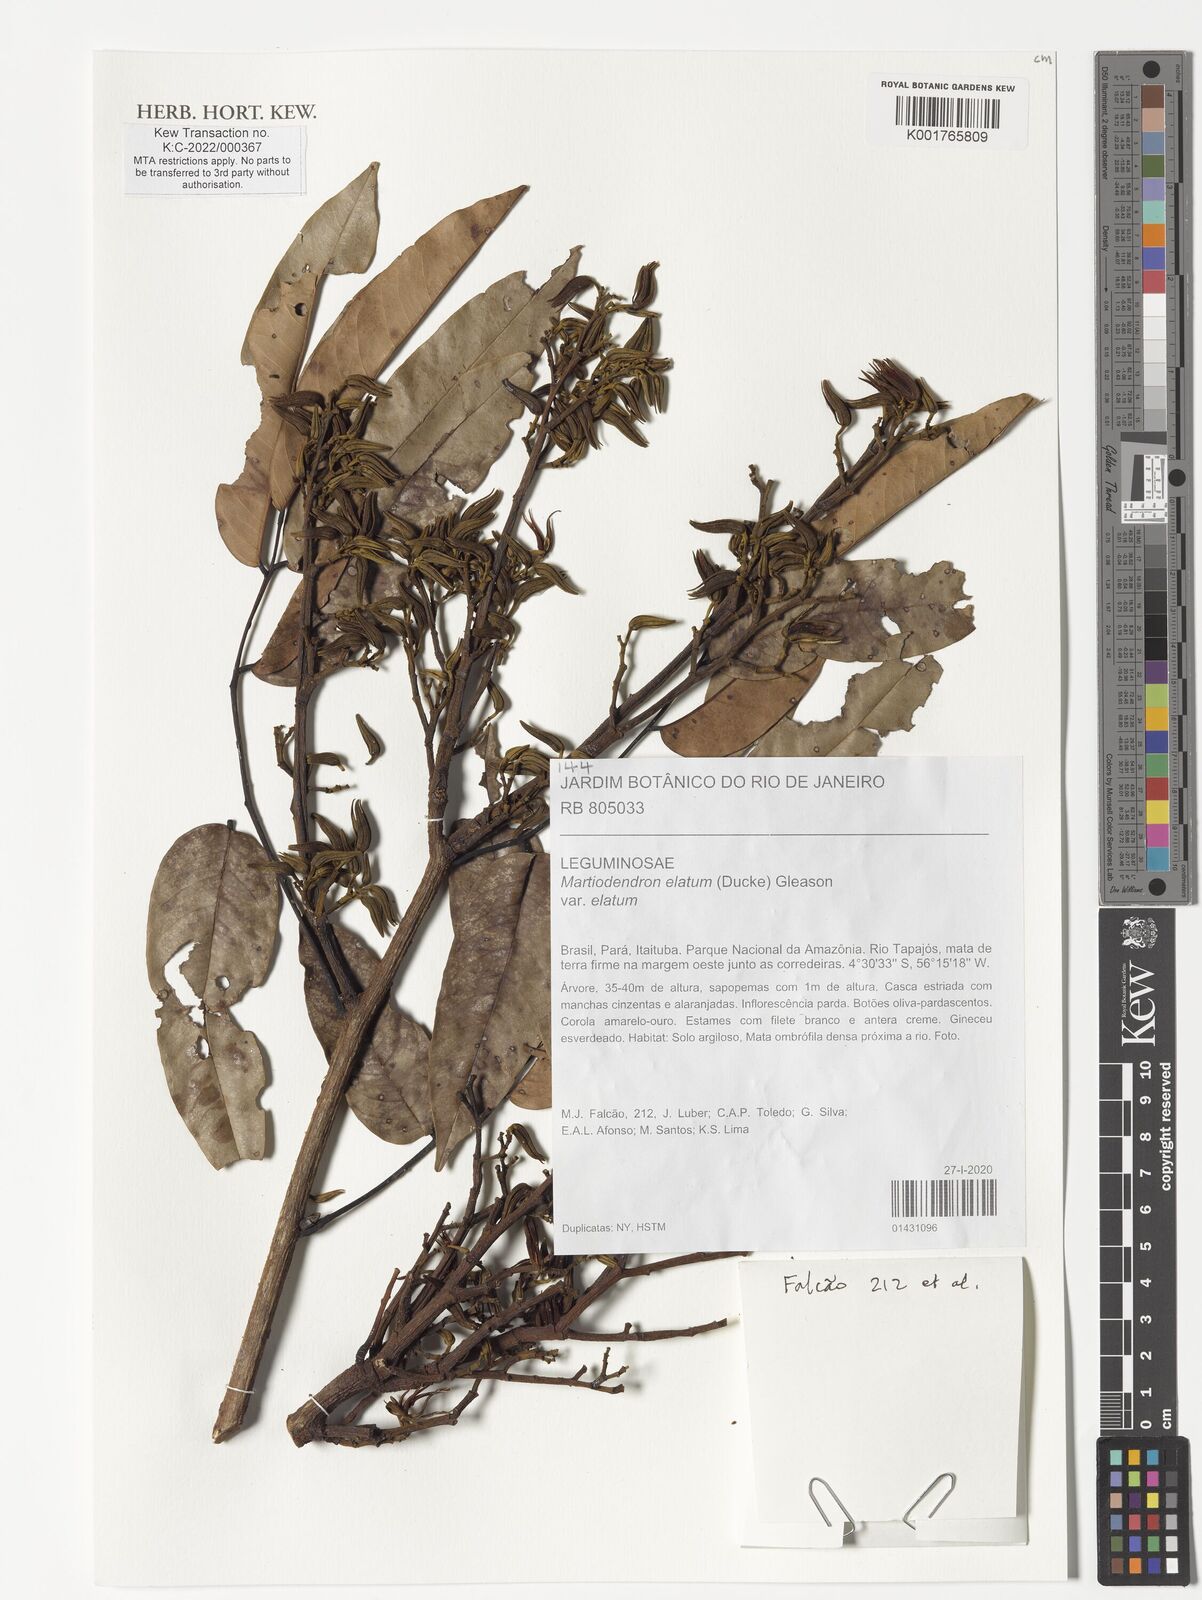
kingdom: Plantae
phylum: Tracheophyta
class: Magnoliopsida
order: Fabales
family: Fabaceae
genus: Martiodendron
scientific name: Martiodendron elatum
